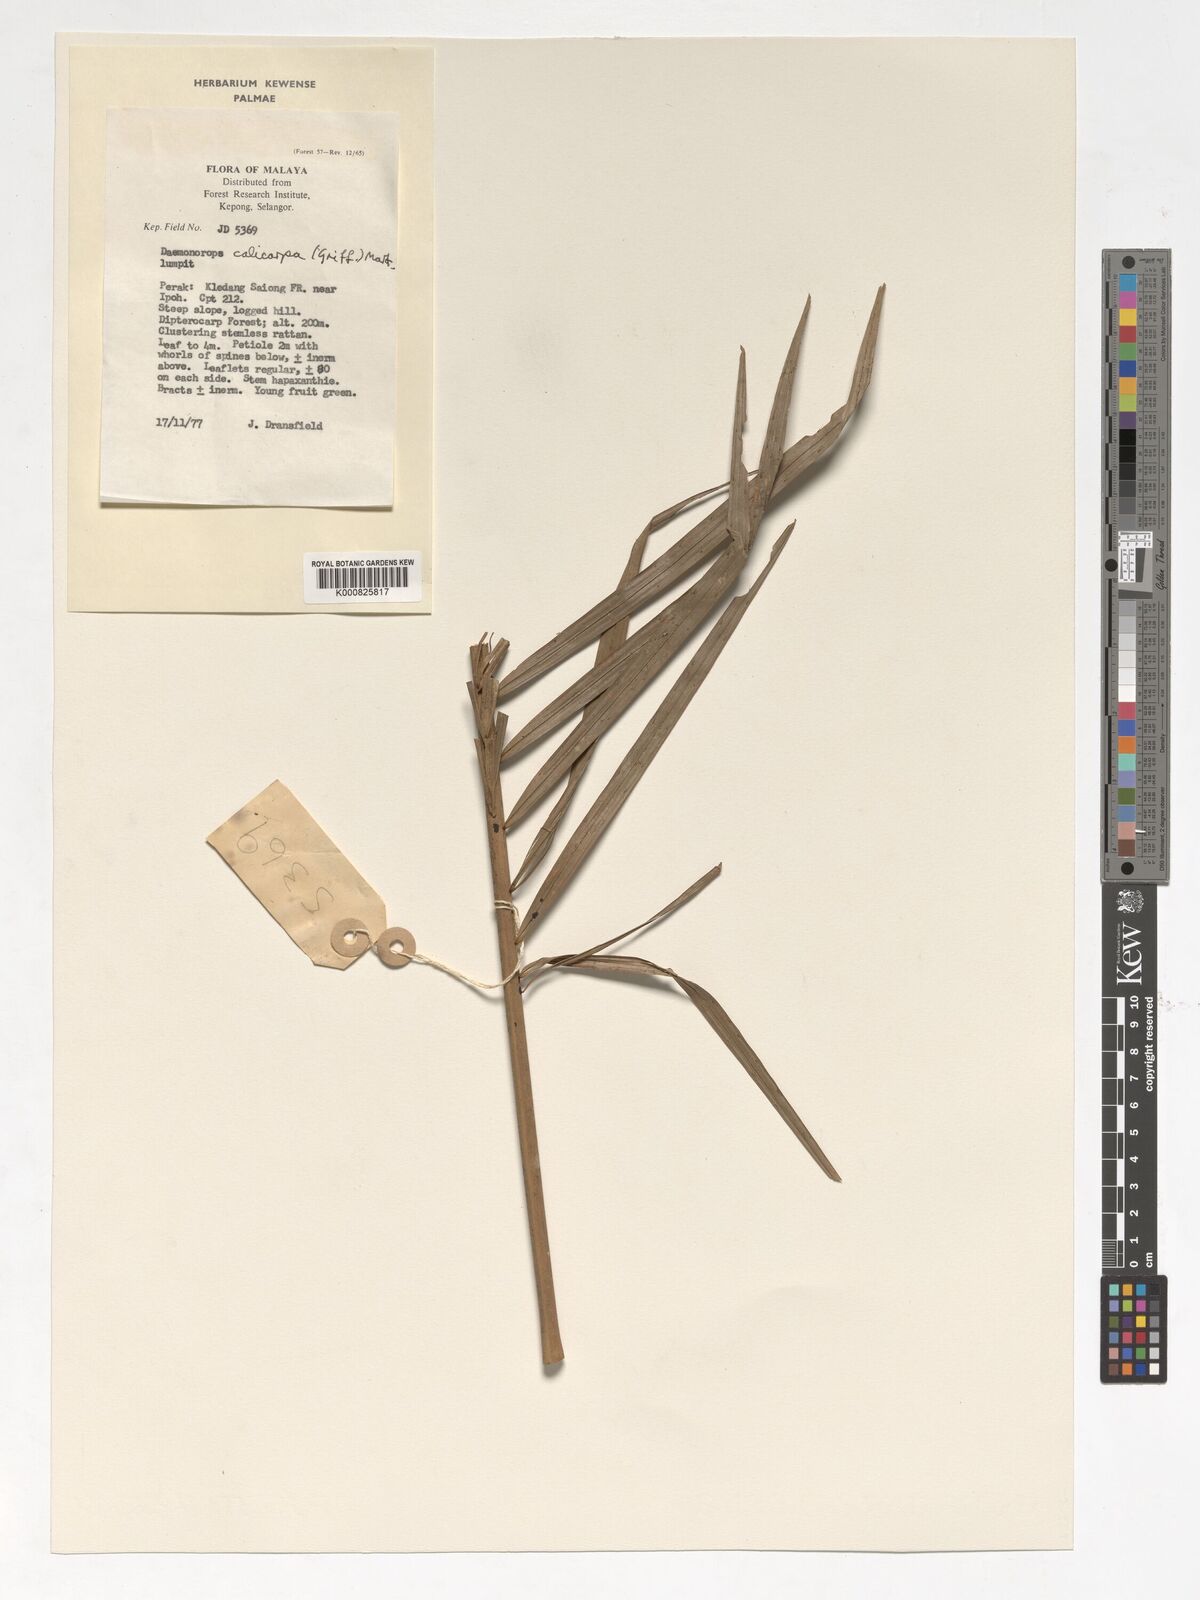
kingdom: Plantae
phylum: Tracheophyta
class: Liliopsida
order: Arecales
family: Arecaceae
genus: Calamus
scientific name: Calamus calicarpus
